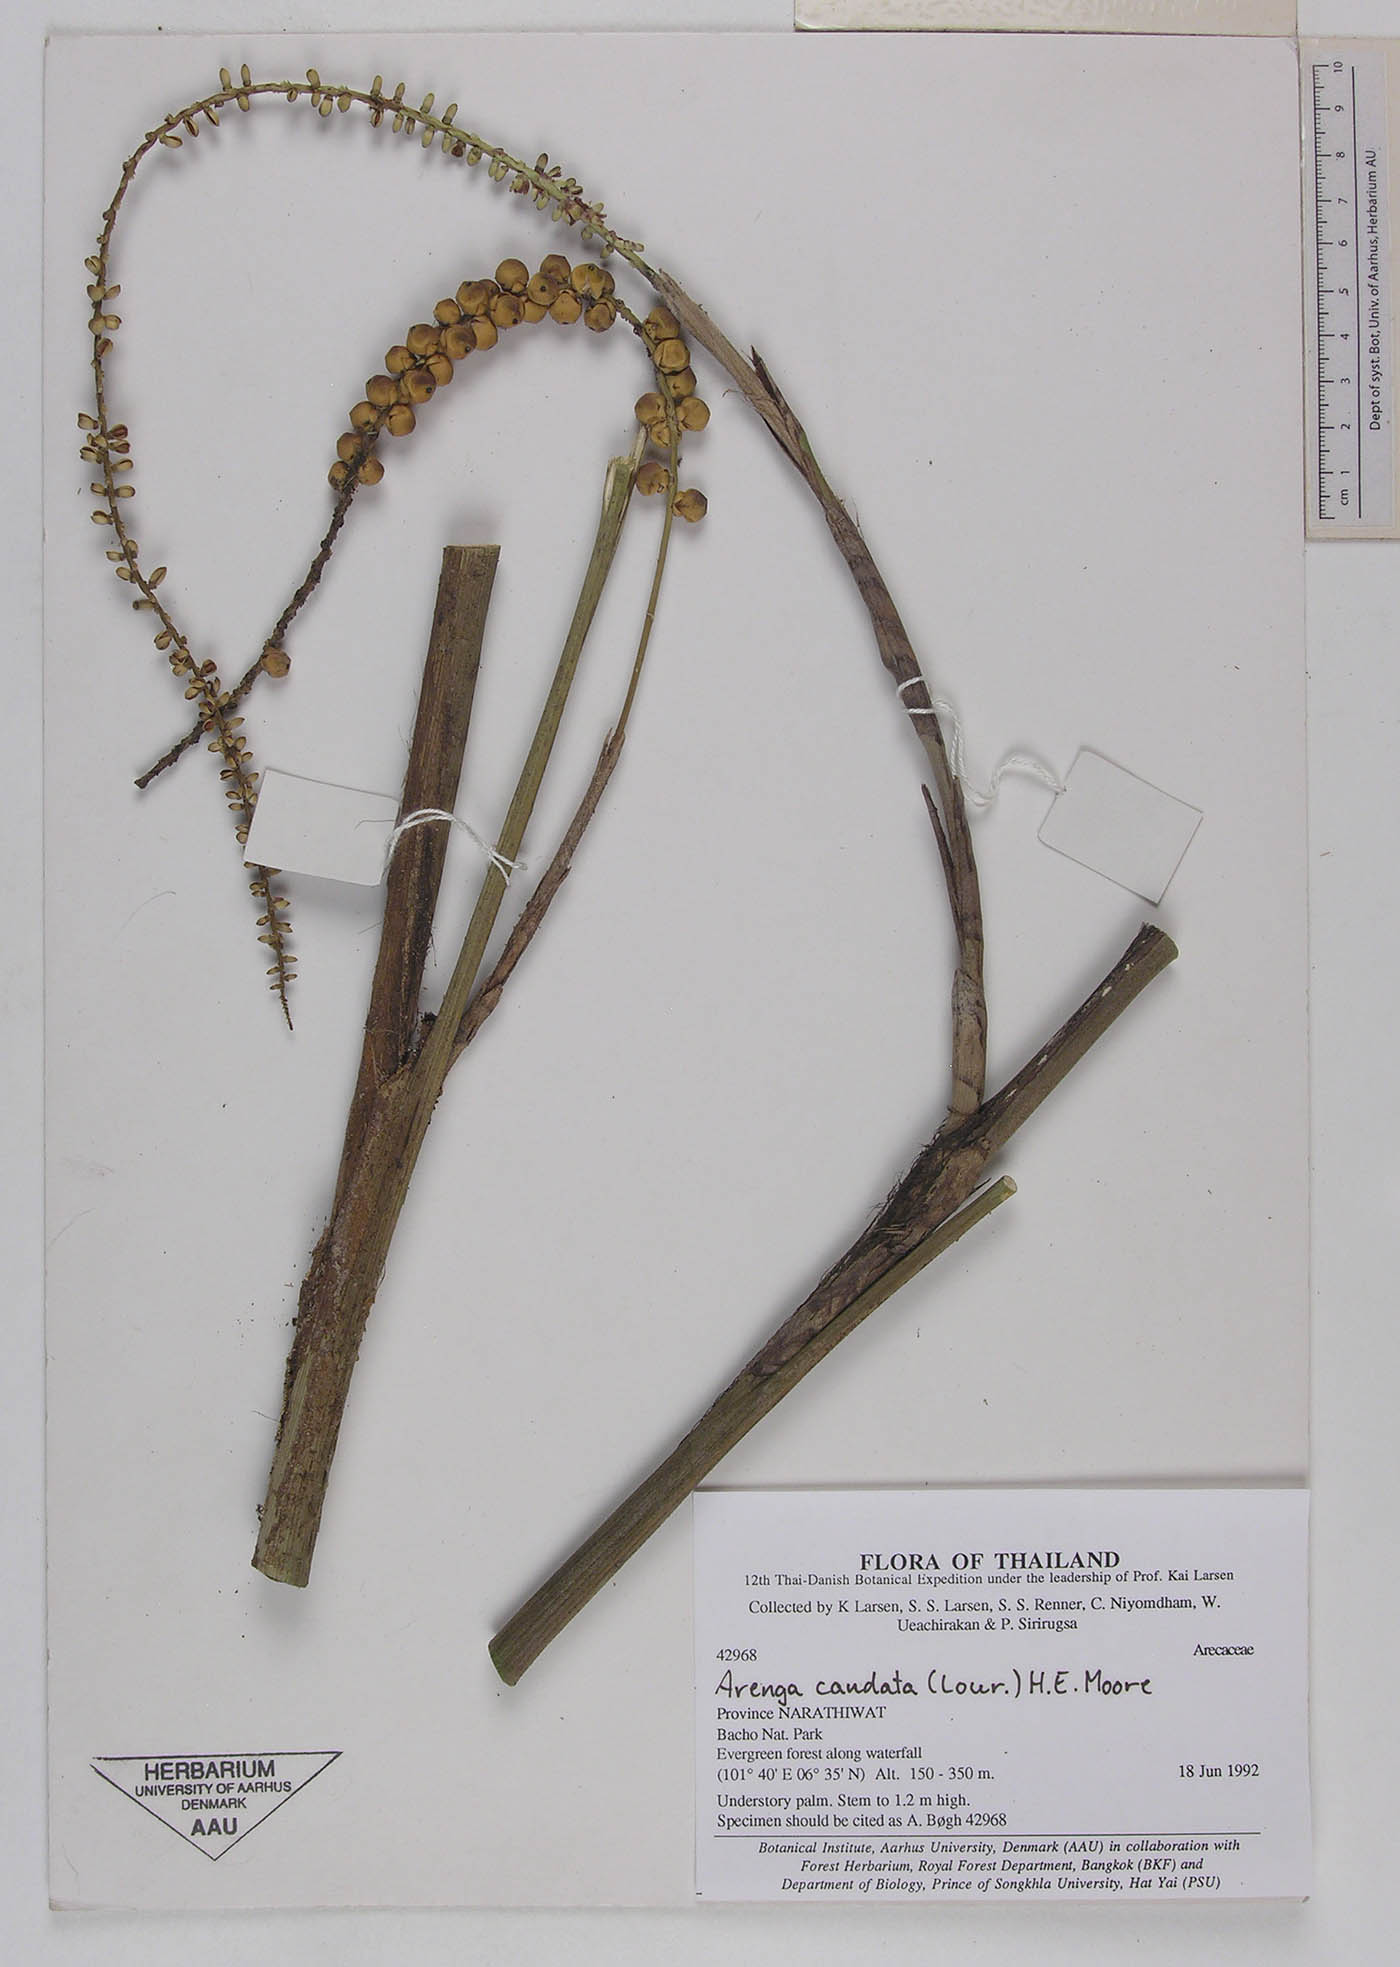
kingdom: Plantae
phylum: Tracheophyta
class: Liliopsida
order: Arecales
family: Arecaceae
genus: Arenga
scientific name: Arenga caudata
